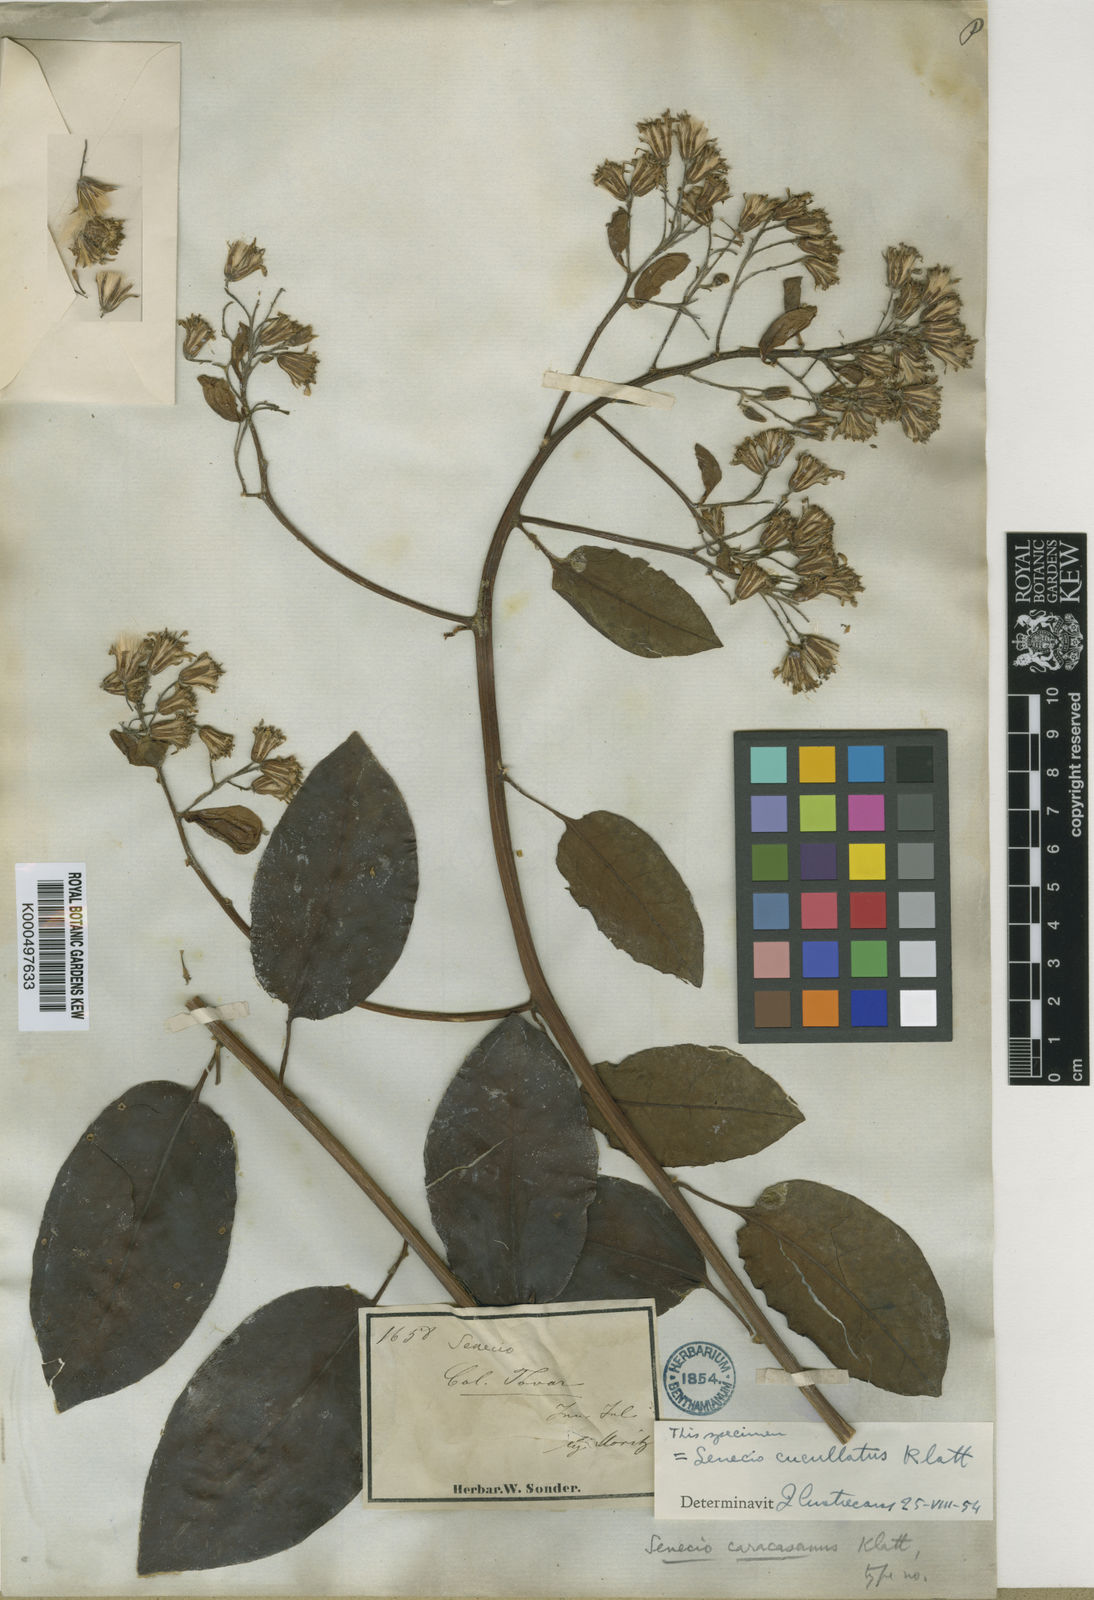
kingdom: Plantae
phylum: Tracheophyta
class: Magnoliopsida
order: Asterales
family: Asteraceae
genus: Pentacalia
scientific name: Pentacalia caracasana
